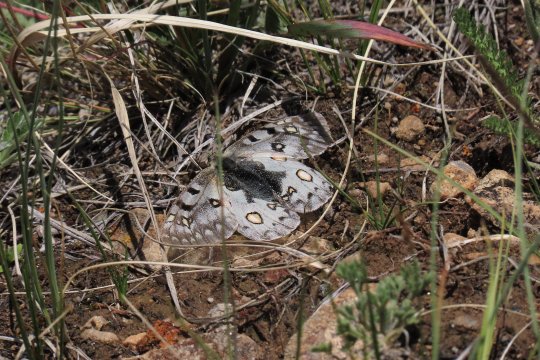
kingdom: Animalia
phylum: Arthropoda
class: Insecta
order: Lepidoptera
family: Papilionidae
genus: Parnassius
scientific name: Parnassius smintheus
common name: Rocky Mountain Parnassian
